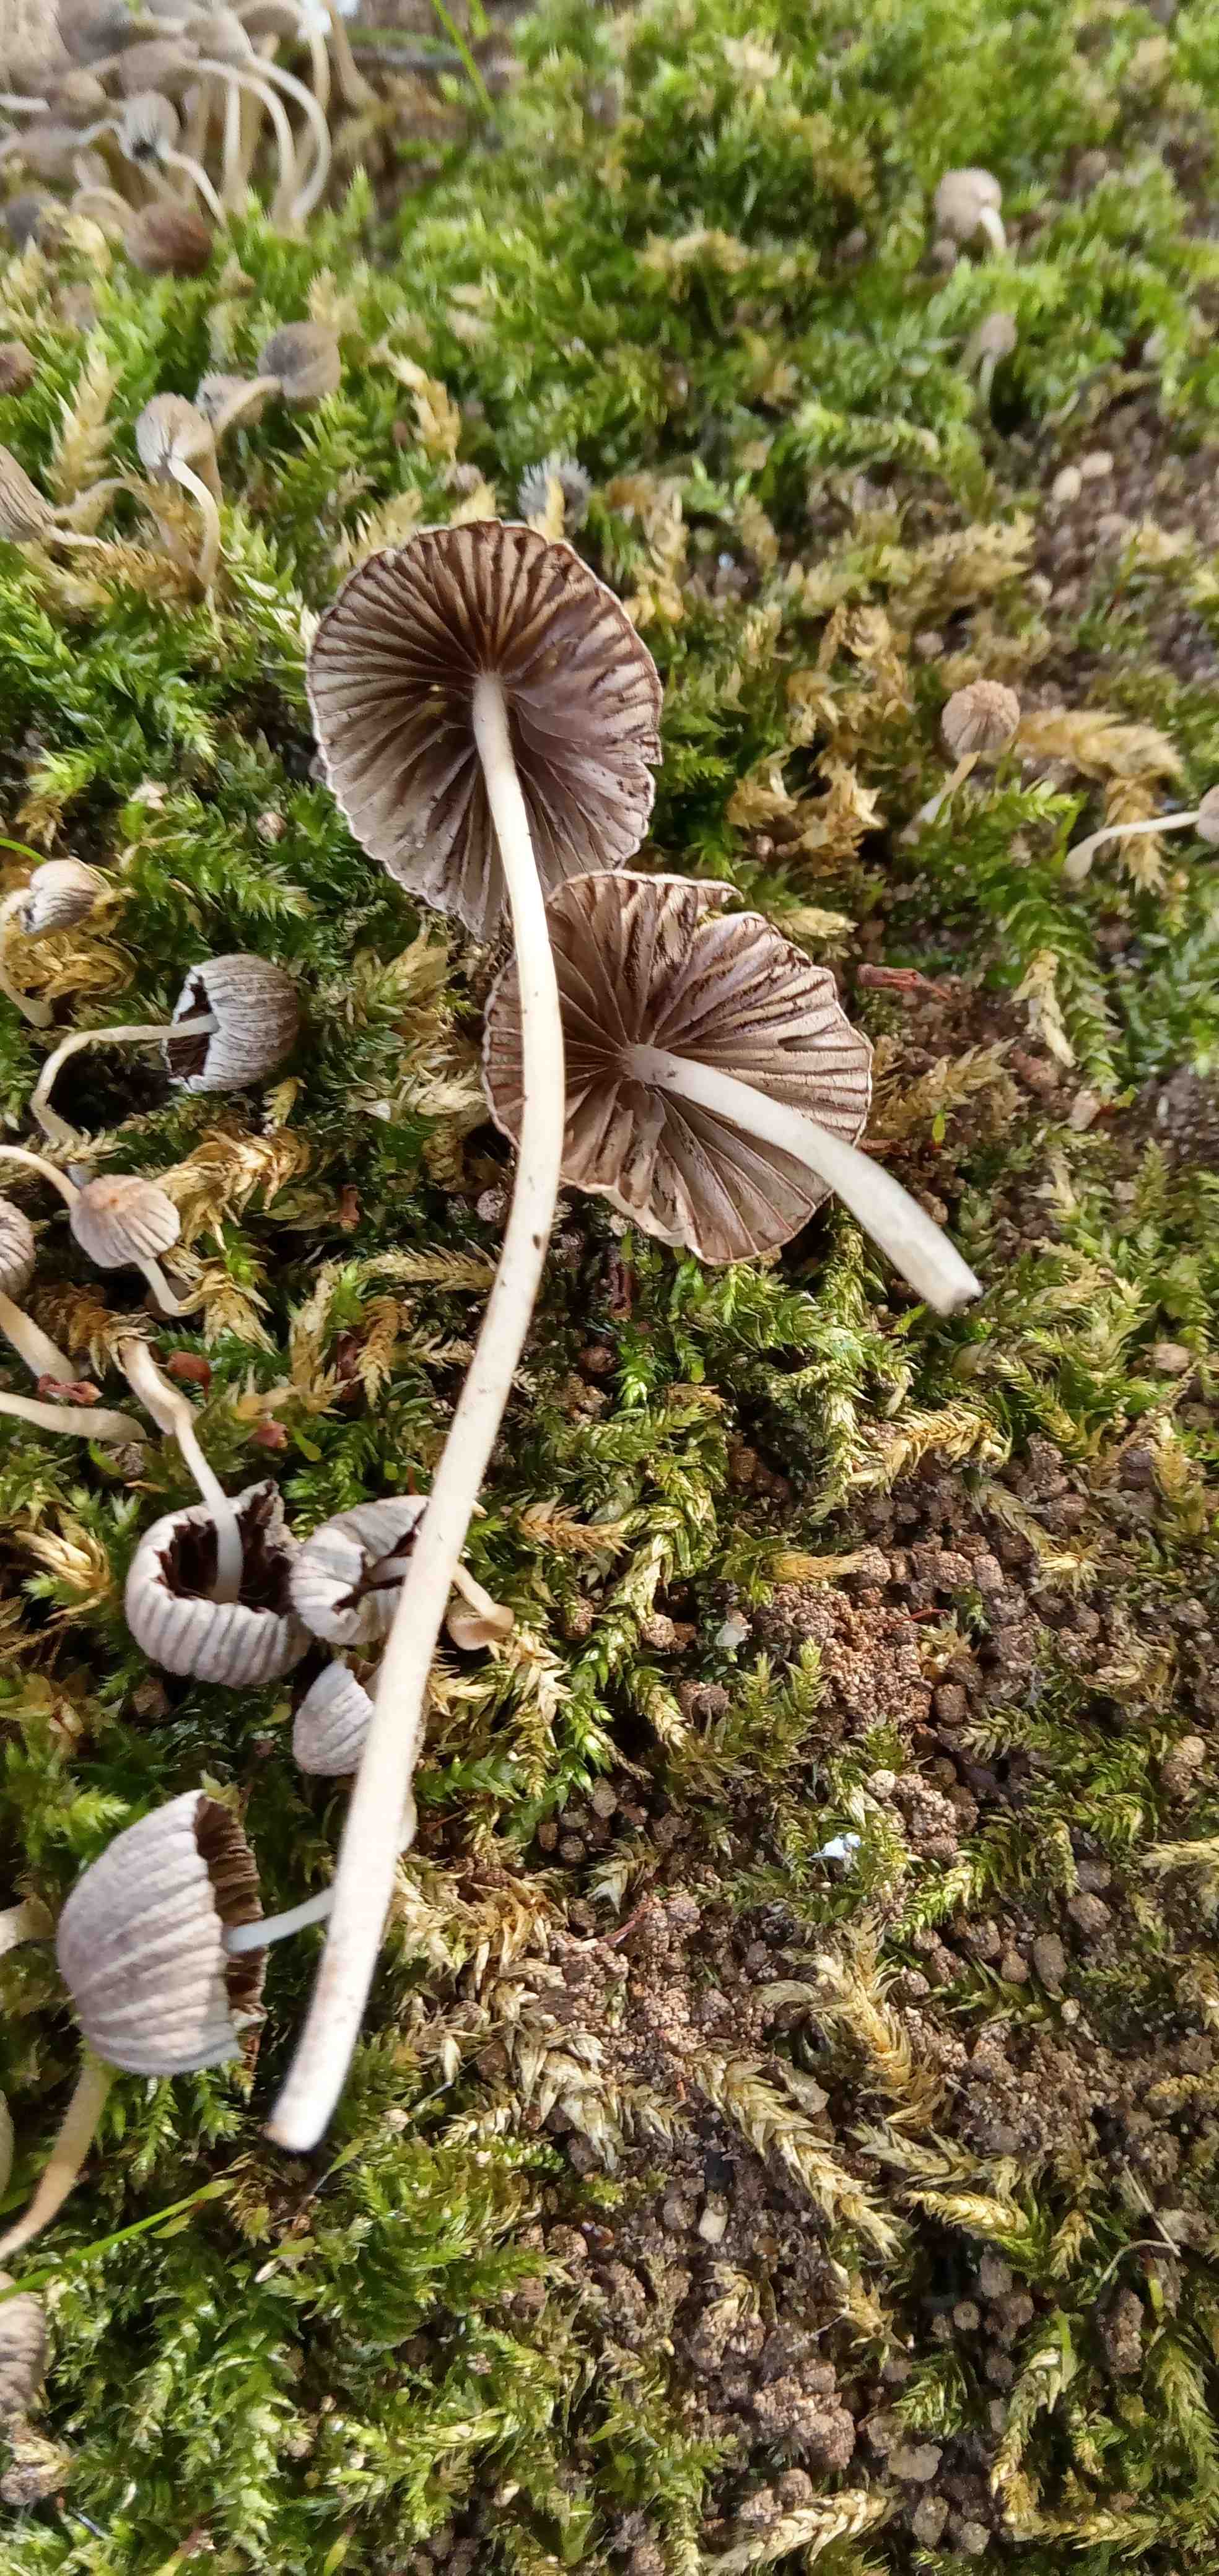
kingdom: Fungi
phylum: Basidiomycota
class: Agaricomycetes
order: Agaricales
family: Psathyrellaceae
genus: Coprinellus
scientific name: Coprinellus disseminatus
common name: bredsået blækhat
